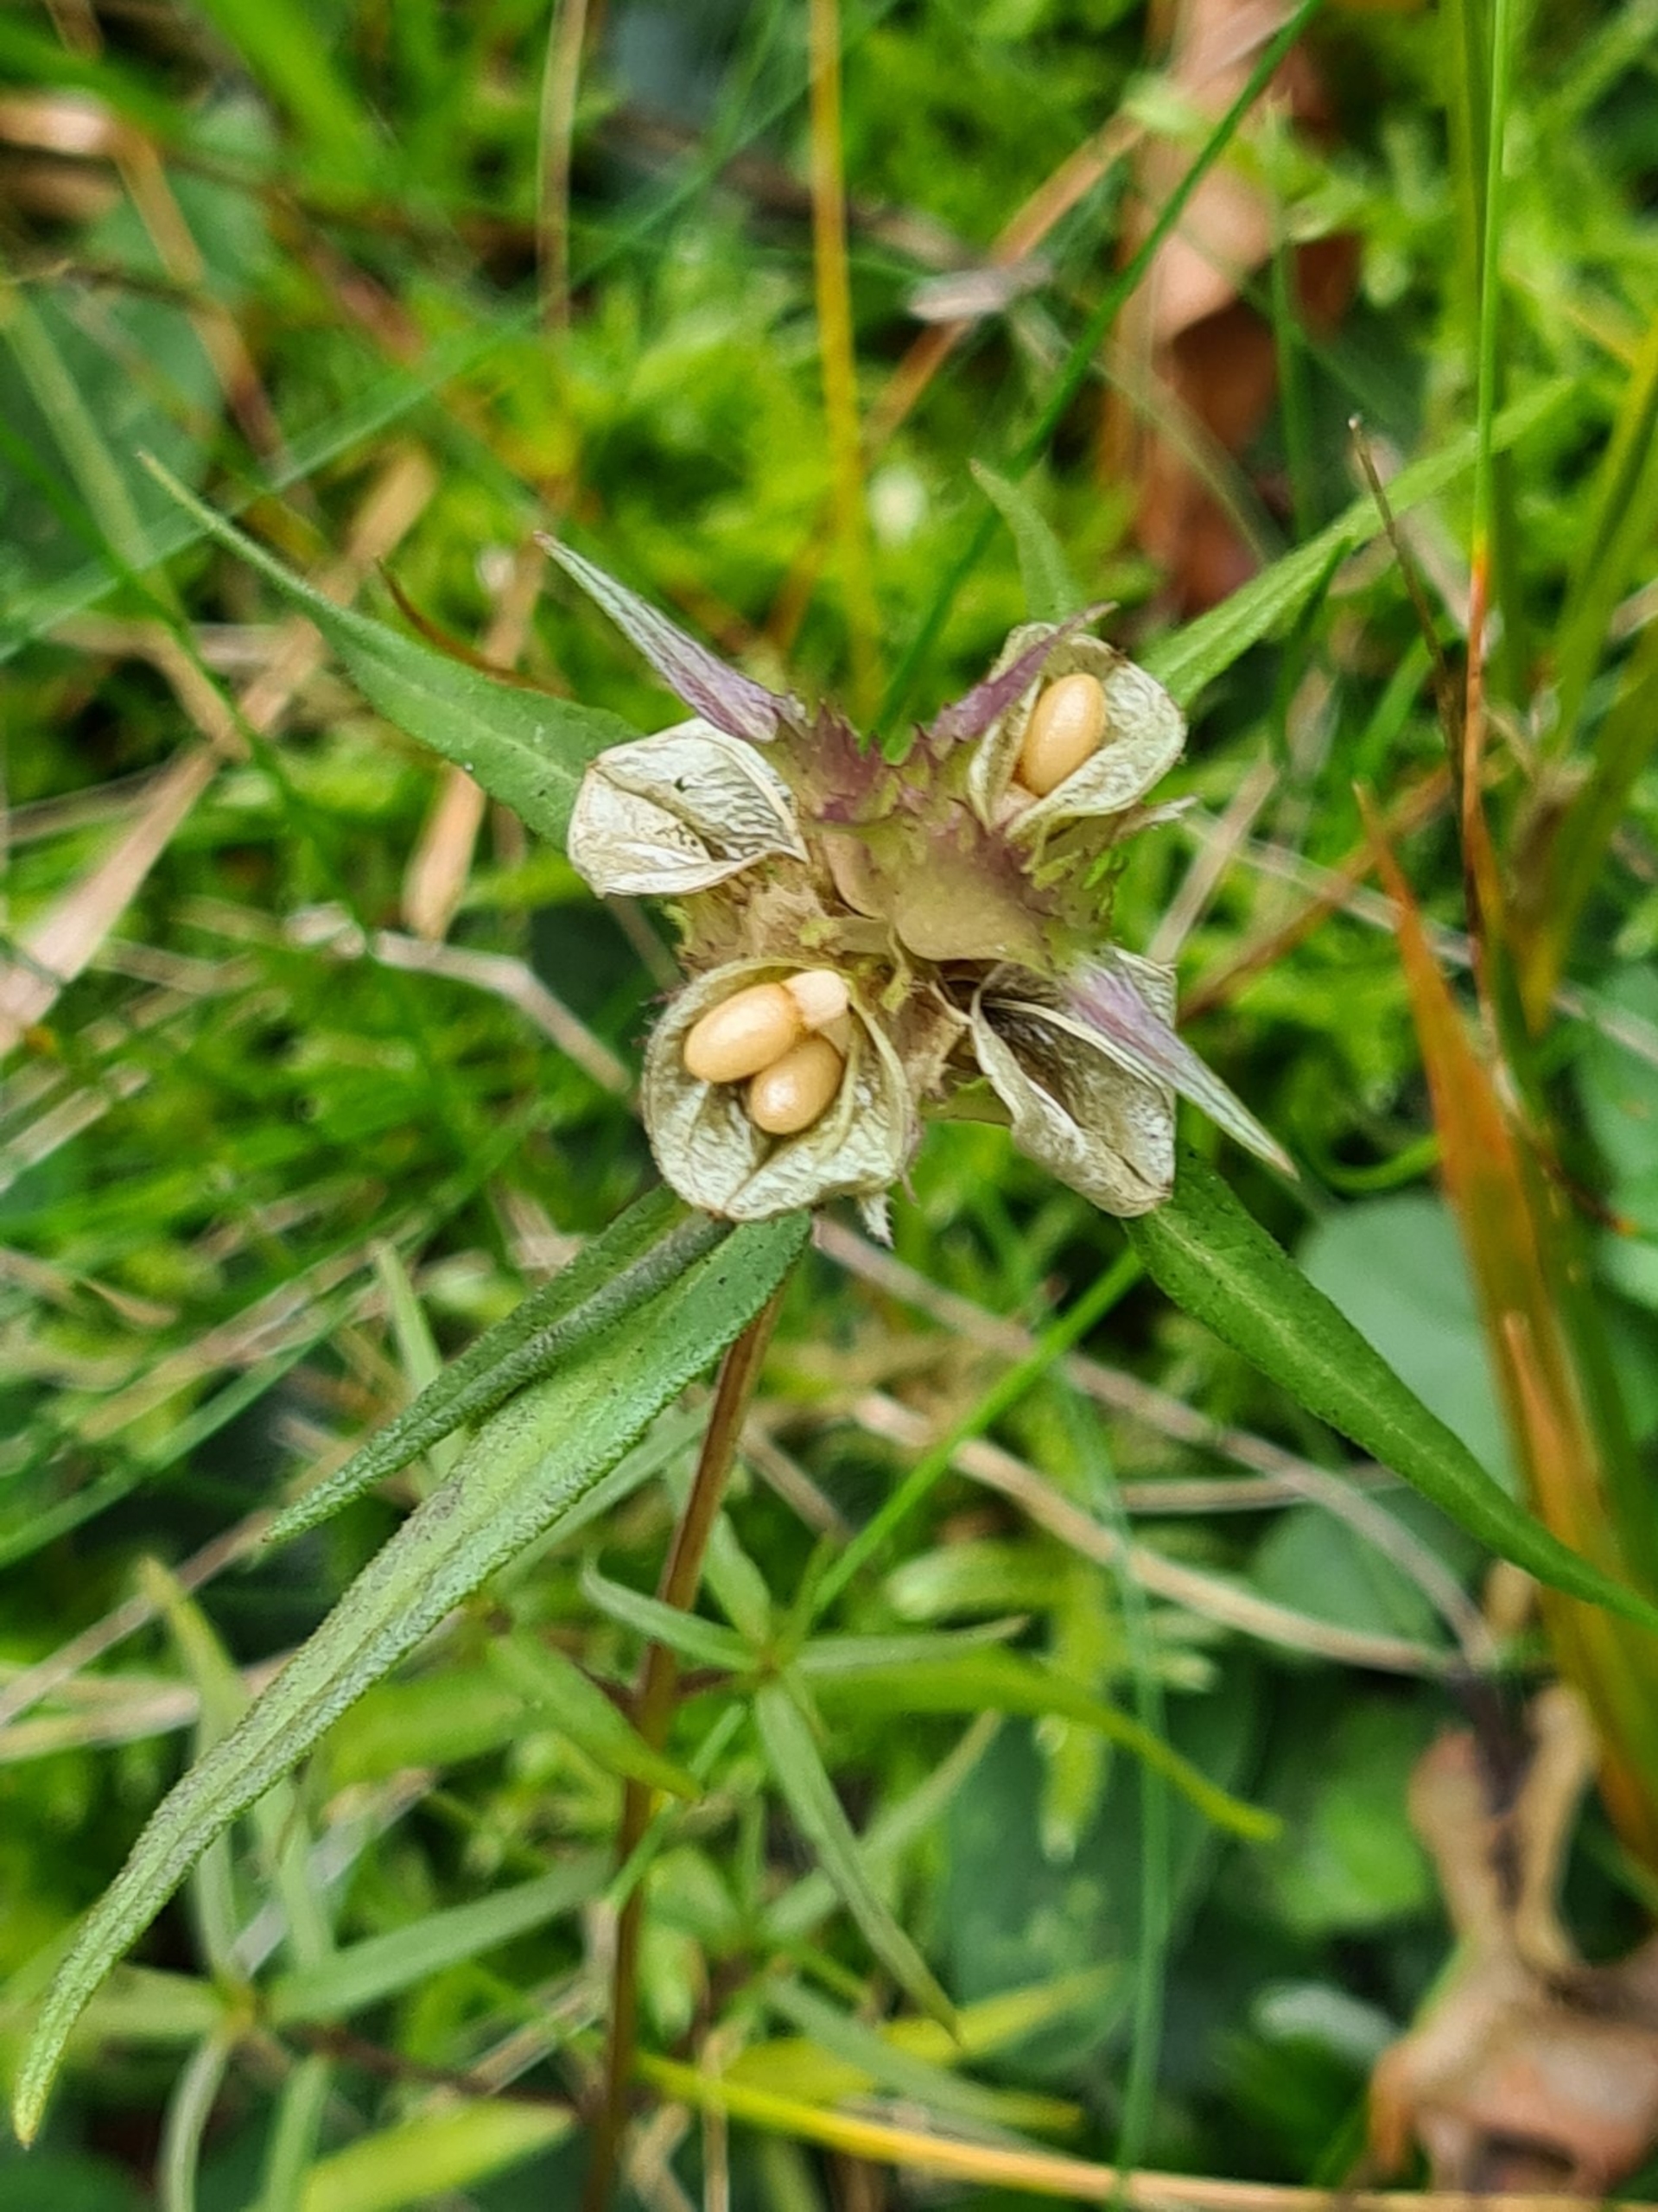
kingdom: Plantae
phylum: Tracheophyta
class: Magnoliopsida
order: Lamiales
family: Orobanchaceae
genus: Melampyrum
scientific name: Melampyrum cristatum
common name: Kantet kohvede
